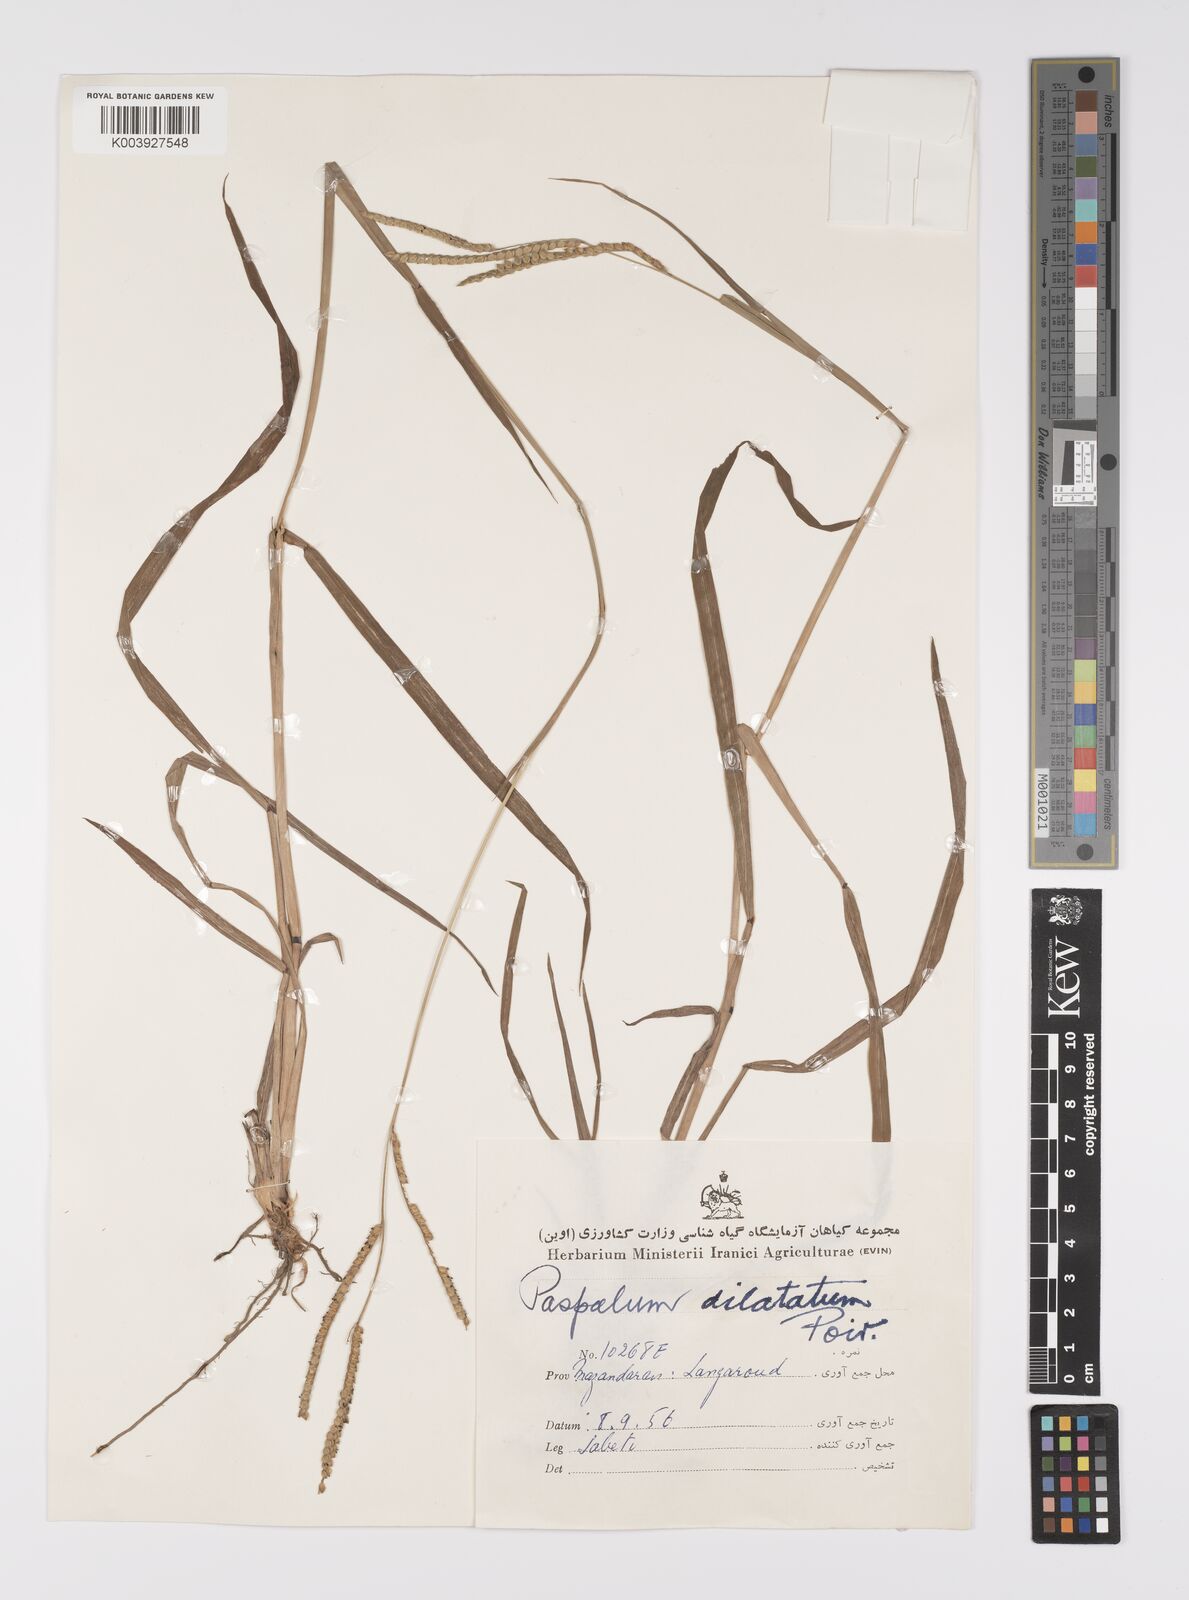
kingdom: Plantae
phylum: Tracheophyta
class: Liliopsida
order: Poales
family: Poaceae
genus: Paspalum
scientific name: Paspalum dilatatum
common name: Dallisgrass
